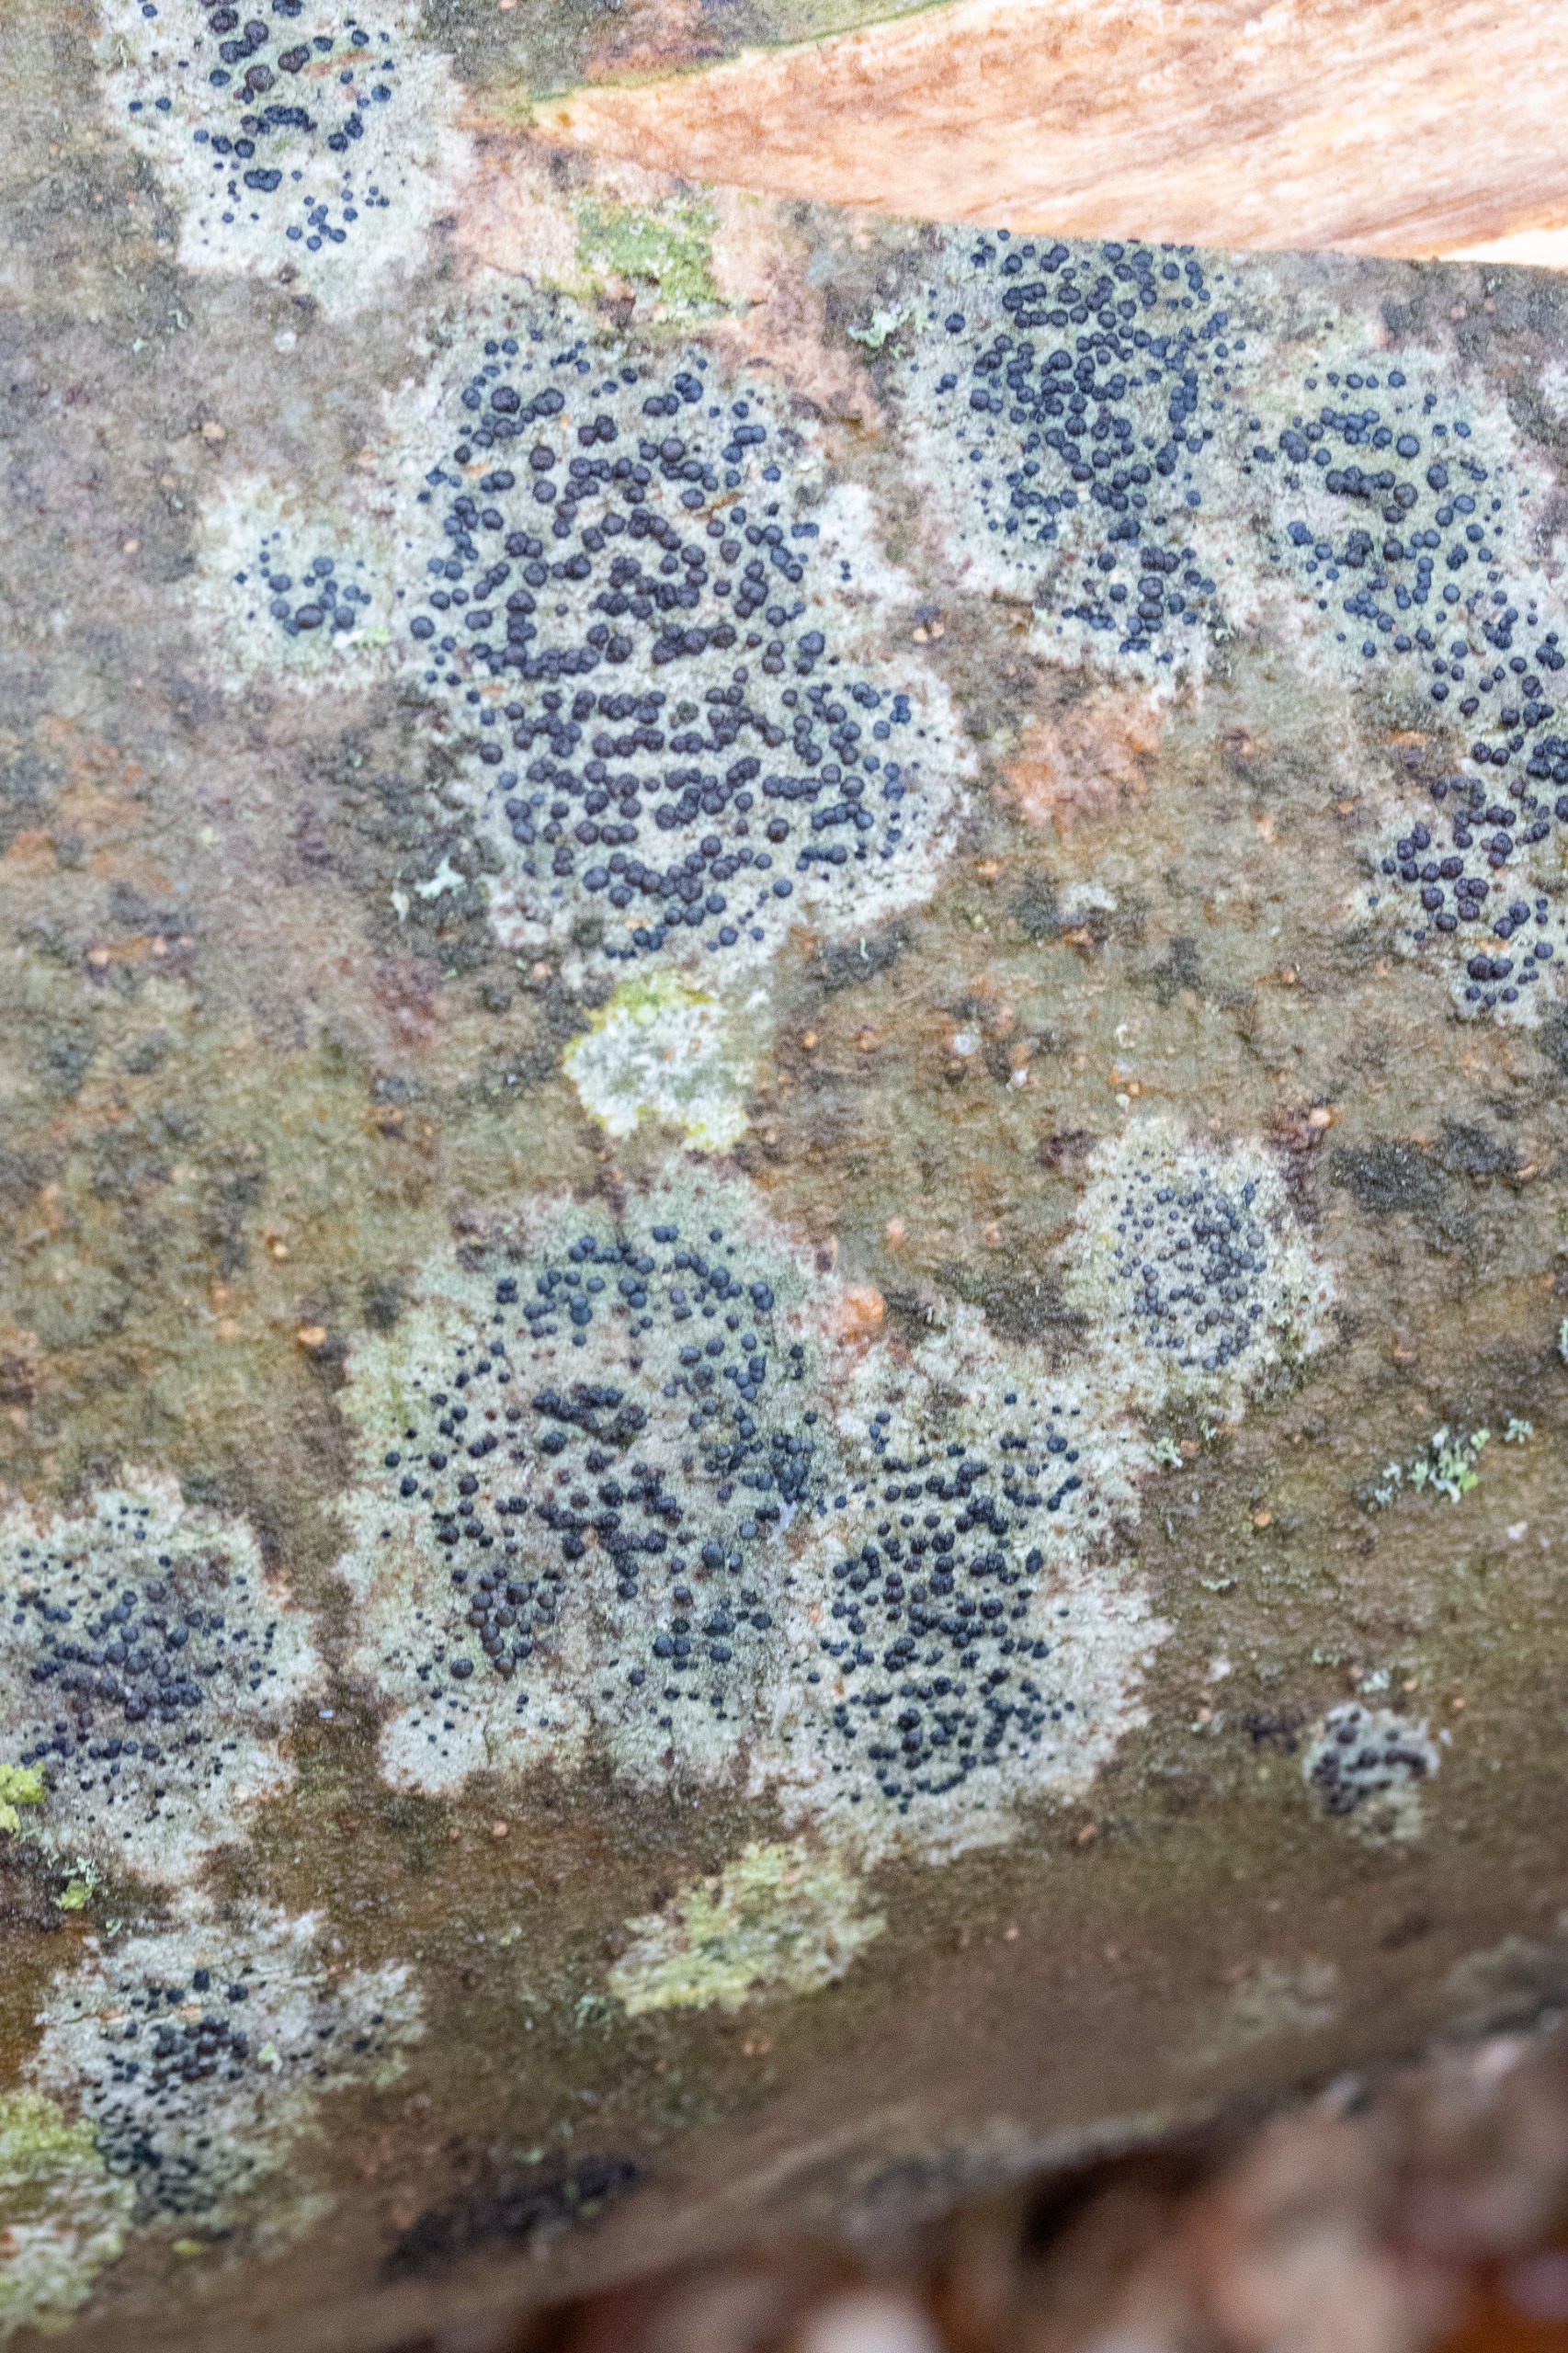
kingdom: Fungi
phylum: Ascomycota
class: Lecanoromycetes
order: Lecanorales
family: Lecanoraceae
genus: Lecidella
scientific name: Lecidella elaeochroma
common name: Grågrøn skivelav
